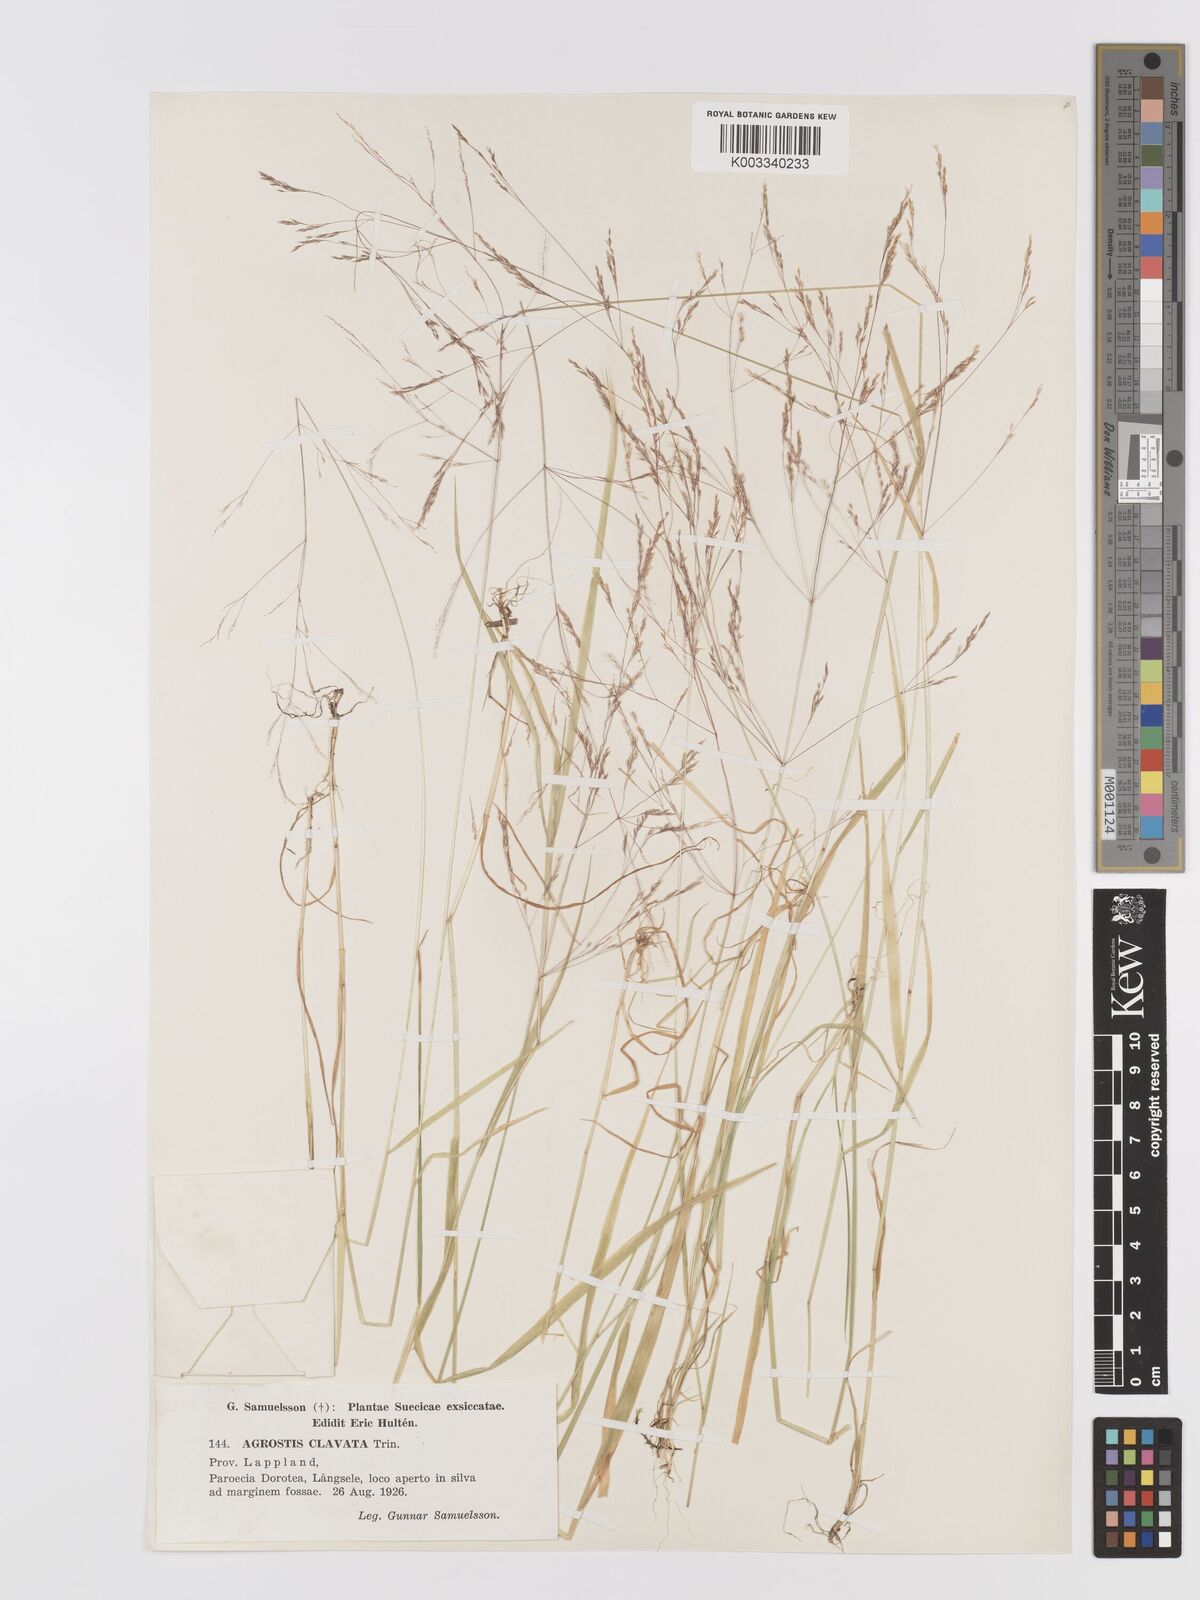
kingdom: Plantae
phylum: Tracheophyta
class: Liliopsida
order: Poales
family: Poaceae
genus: Agrostis
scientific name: Agrostis clavata
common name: Clavate bent
